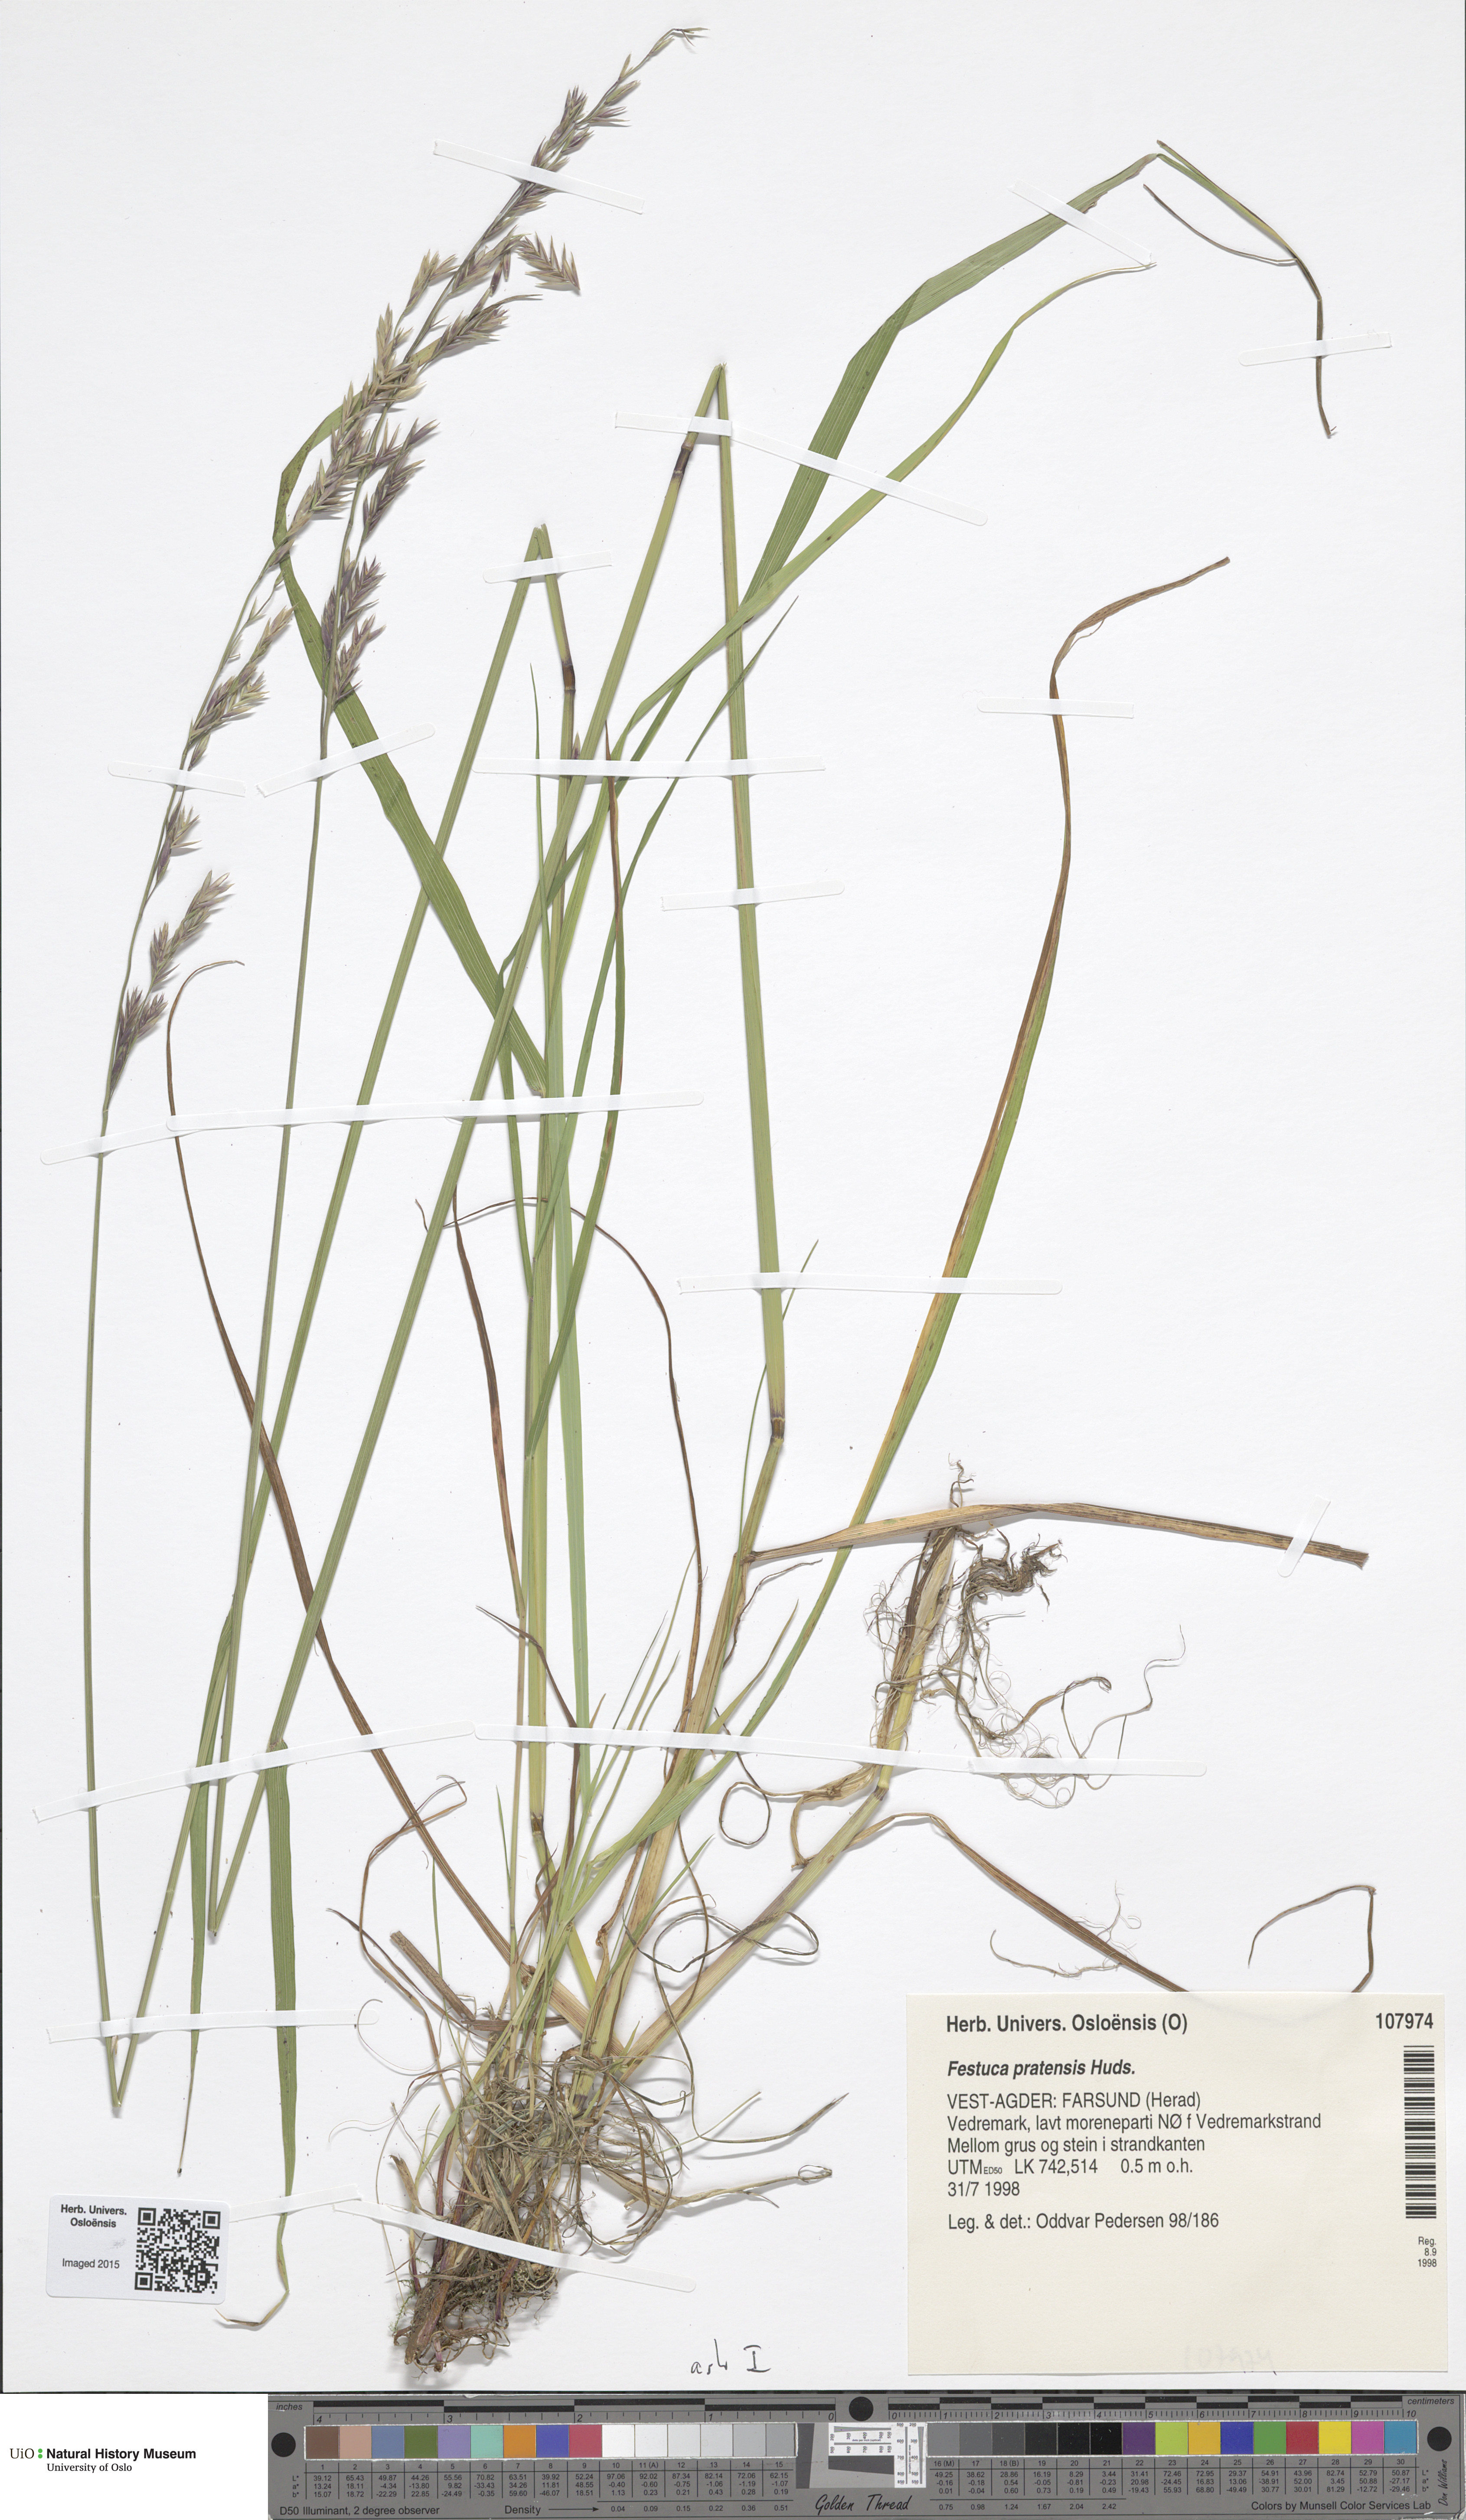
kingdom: Plantae
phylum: Tracheophyta
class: Liliopsida
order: Poales
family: Poaceae
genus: Lolium
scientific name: Lolium pratense
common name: Dover grass
